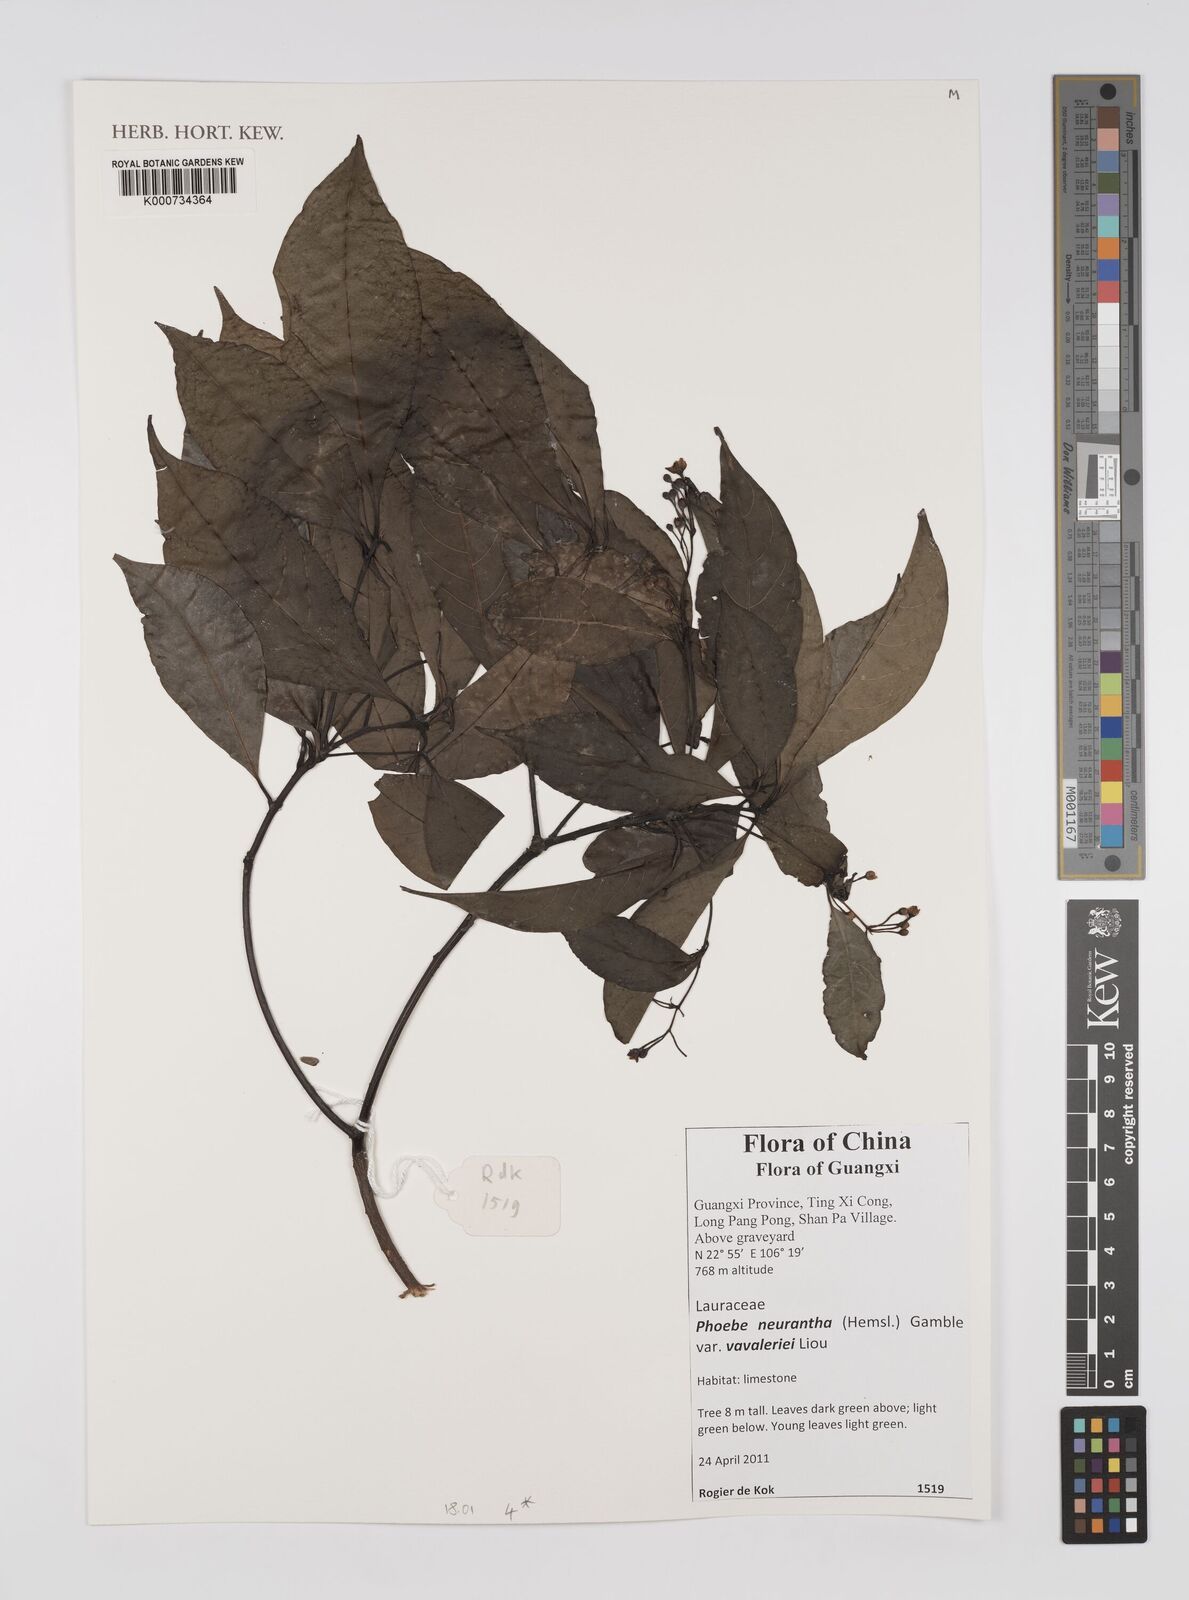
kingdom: Plantae
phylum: Tracheophyta
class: Magnoliopsida
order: Laurales
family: Lauraceae
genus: Phoebe
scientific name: Phoebe neurantha
